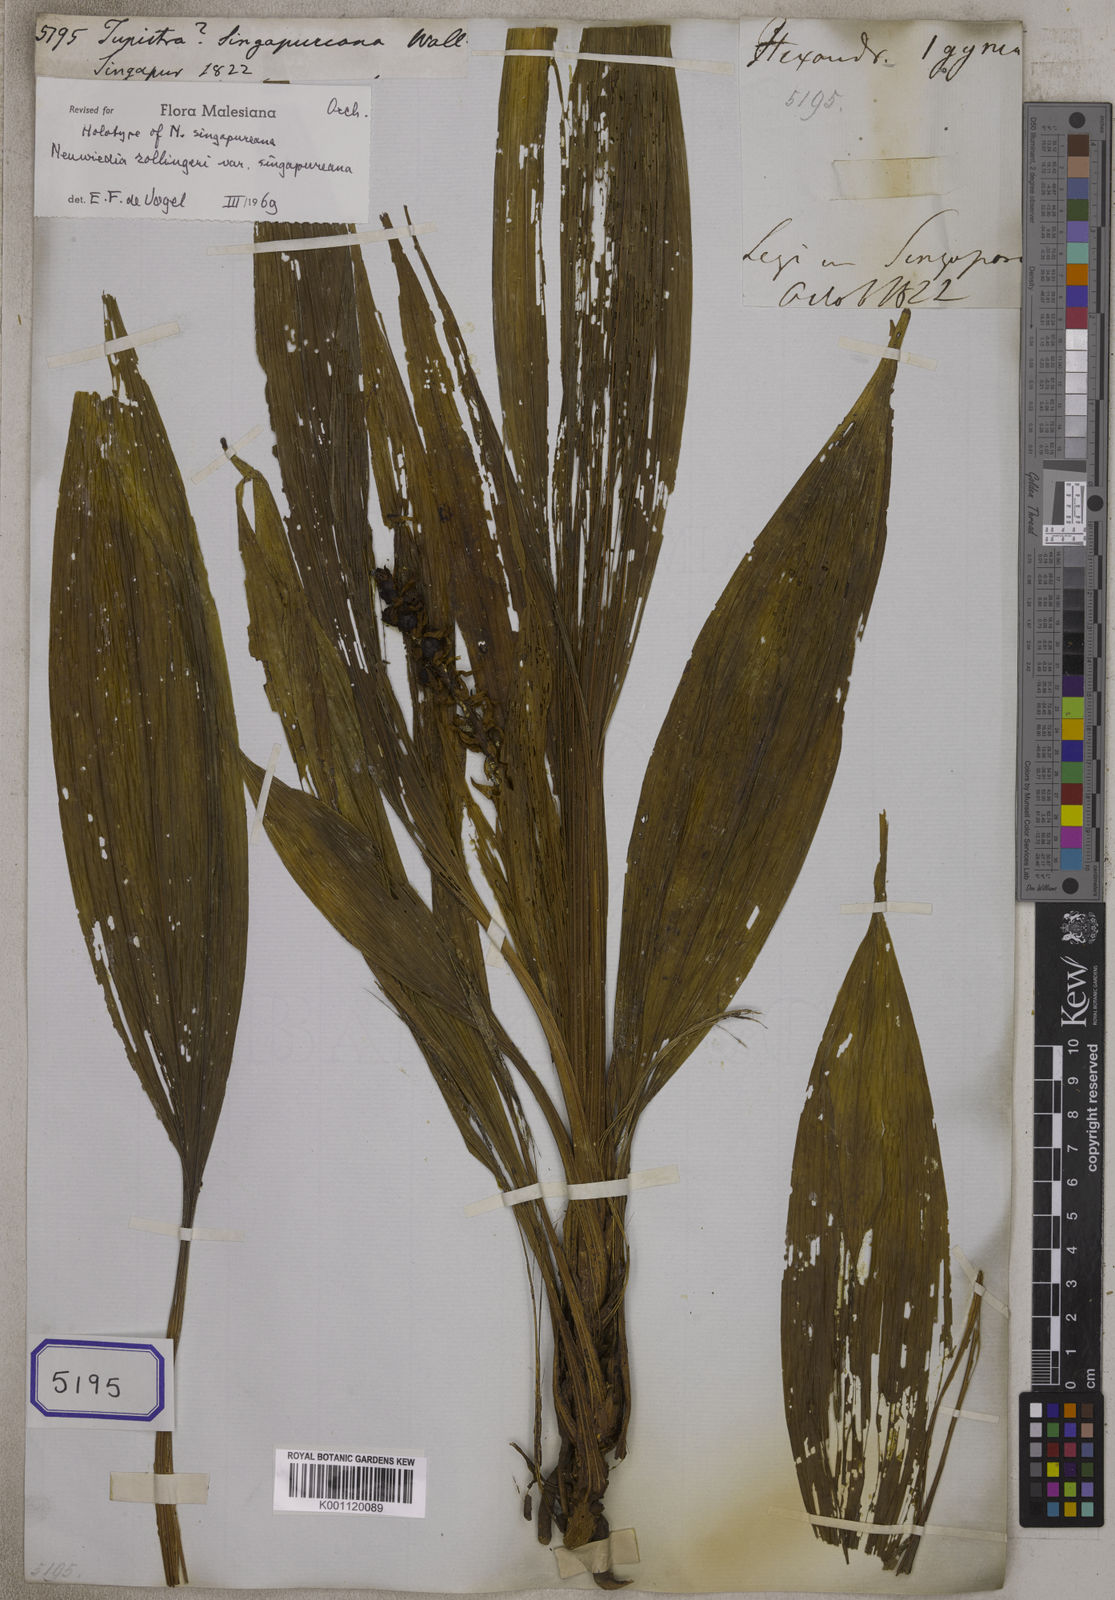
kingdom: Plantae
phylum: Tracheophyta
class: Liliopsida
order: Asparagales
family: Asparagaceae
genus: Tupistra
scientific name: Tupistra
